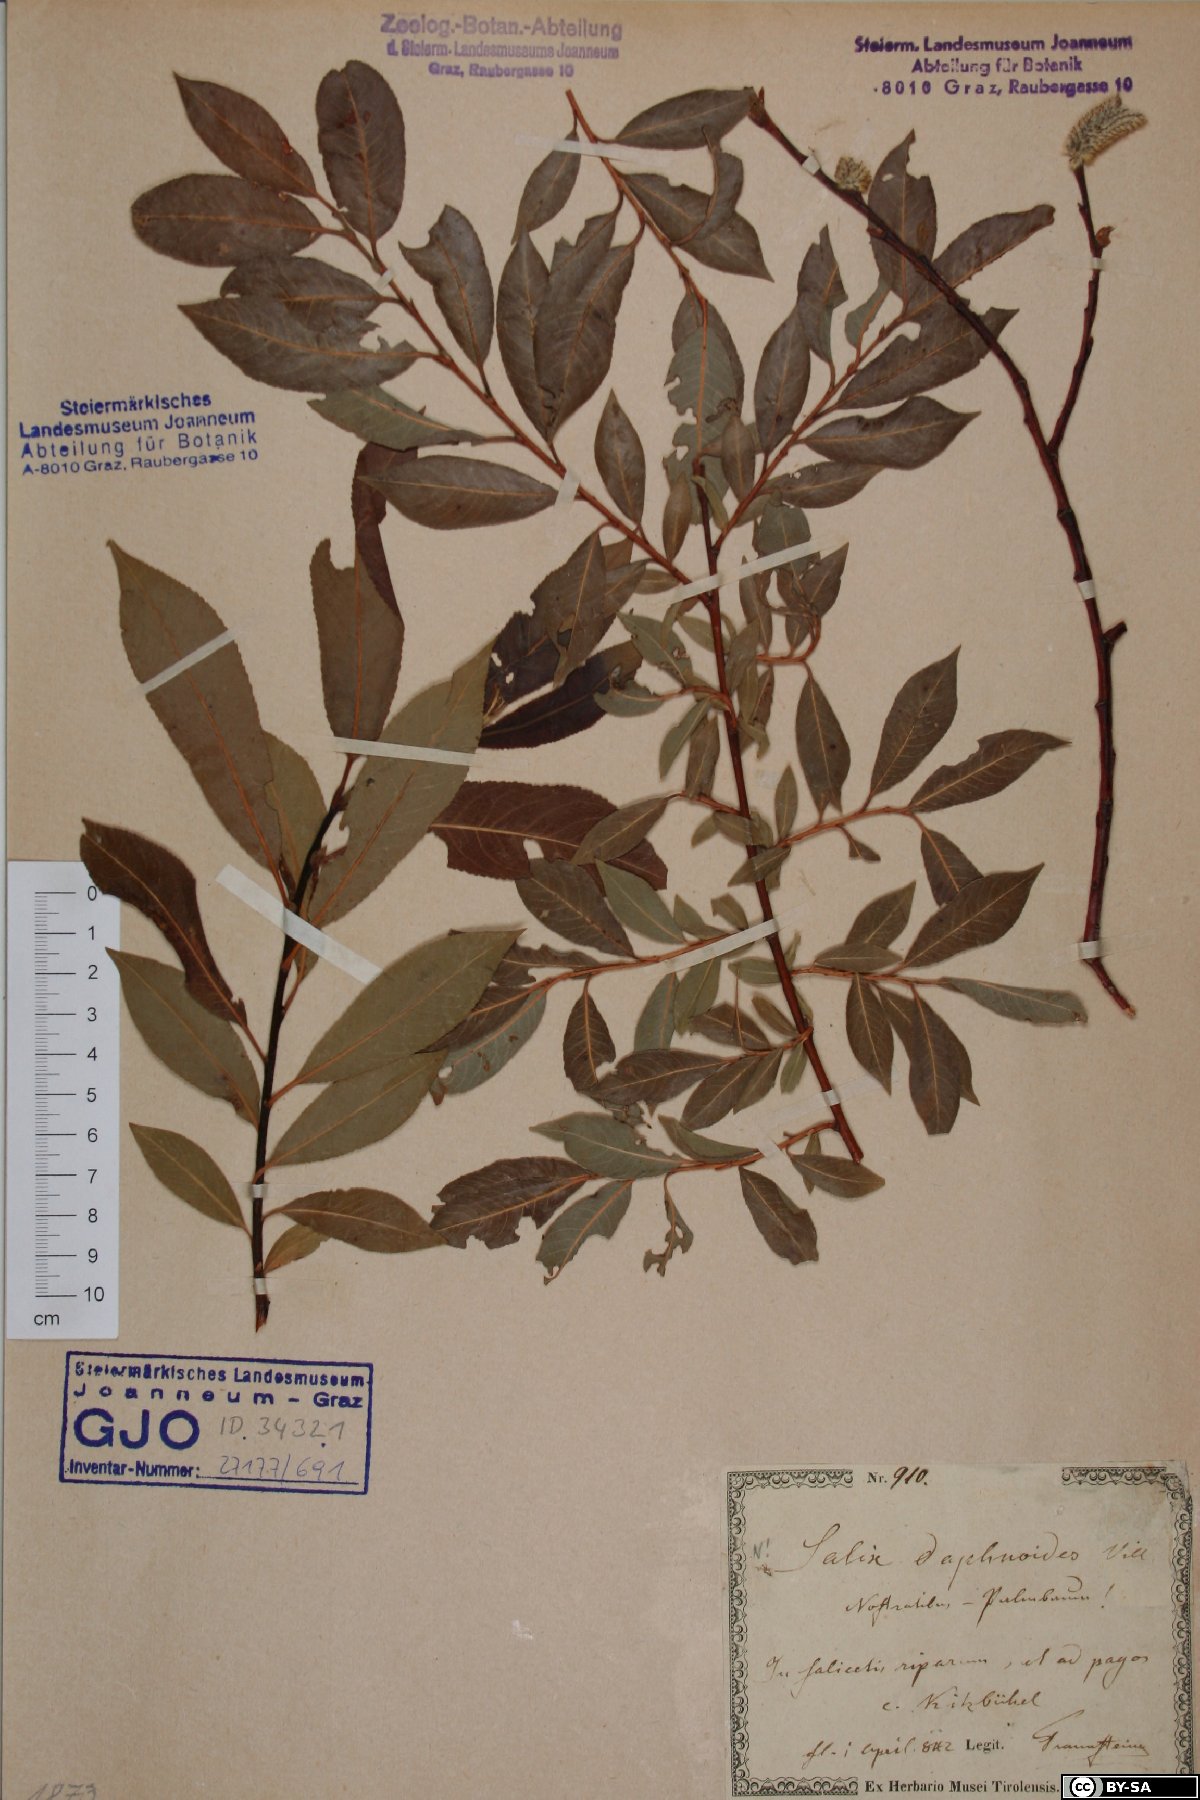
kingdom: Plantae
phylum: Tracheophyta
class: Magnoliopsida
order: Malpighiales
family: Salicaceae
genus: Salix
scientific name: Salix daphnoides
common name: European violet-willow
